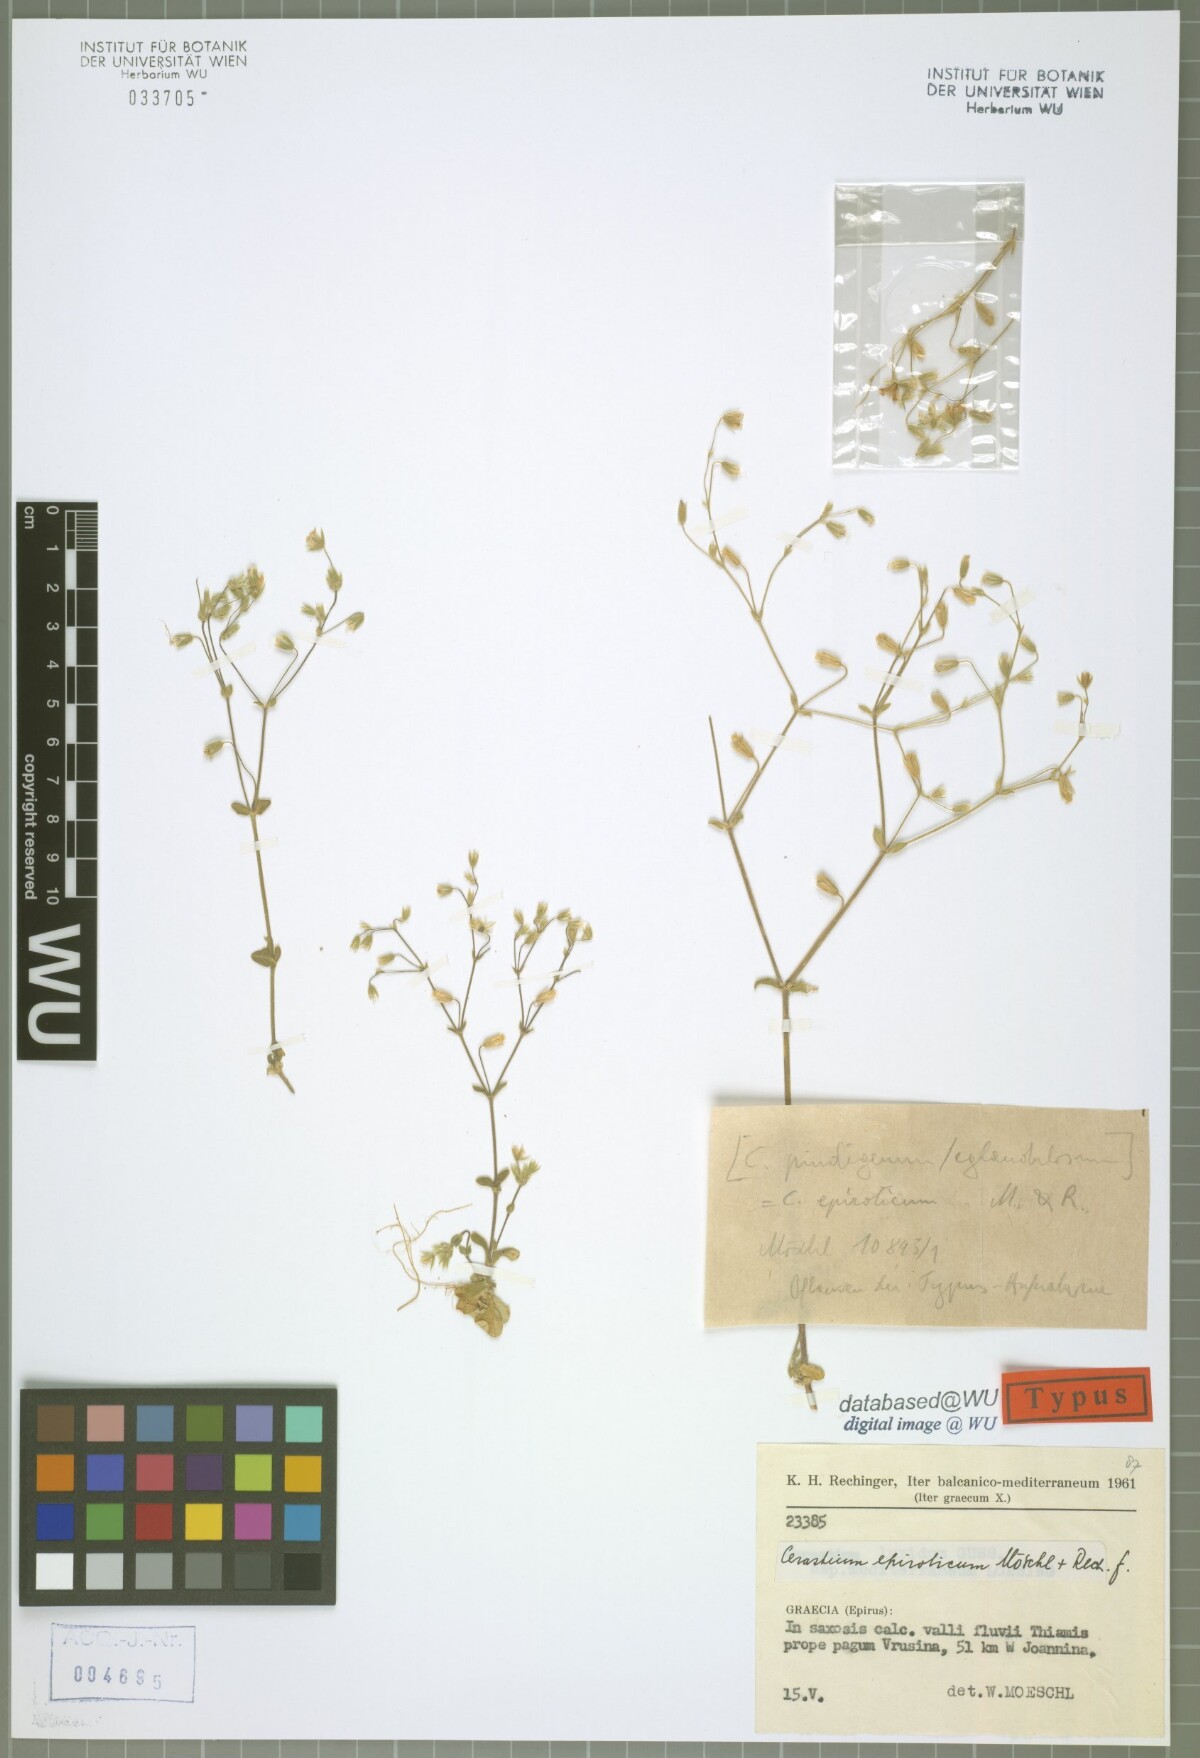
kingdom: Plantae
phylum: Tracheophyta
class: Magnoliopsida
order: Caryophyllales
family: Caryophyllaceae
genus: Cerastium
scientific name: Cerastium tenoreanum
